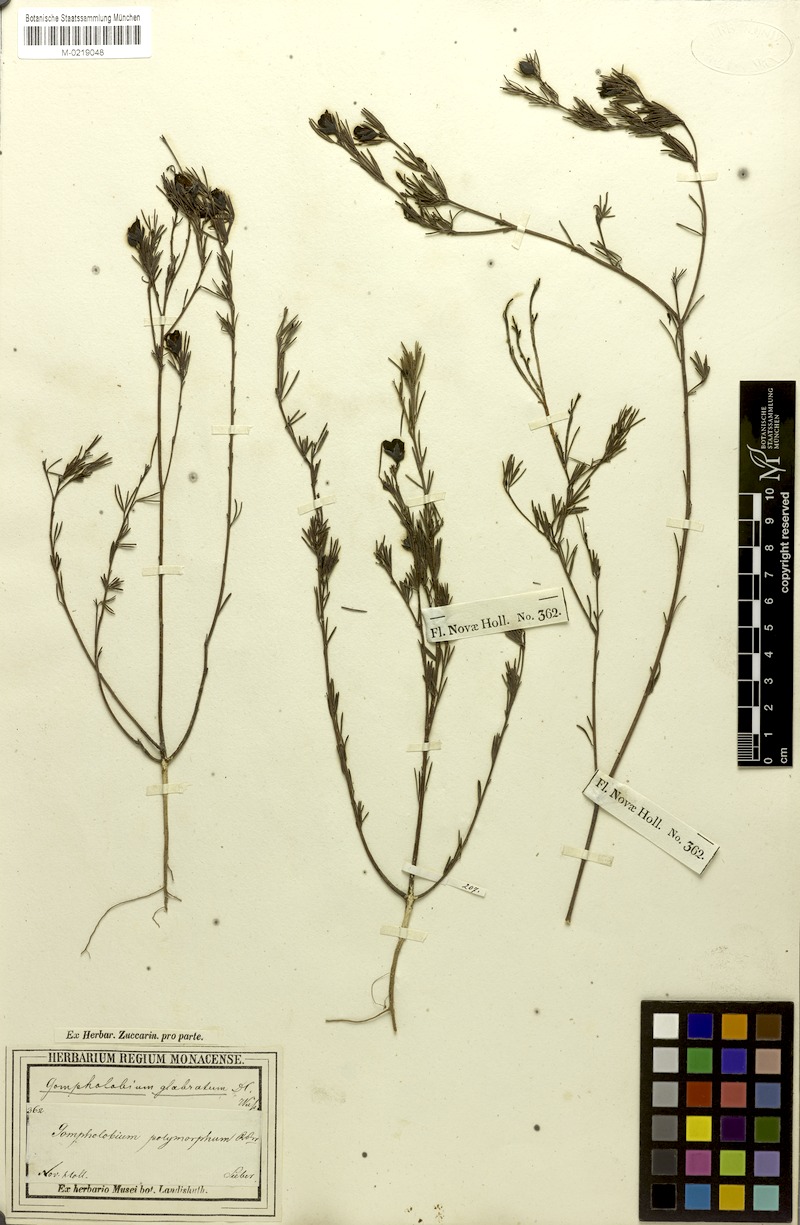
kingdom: Plantae
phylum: Tracheophyta
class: Magnoliopsida
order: Fabales
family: Fabaceae
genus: Gompholobium
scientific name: Gompholobium glabratum
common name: Dainty wedge pea
